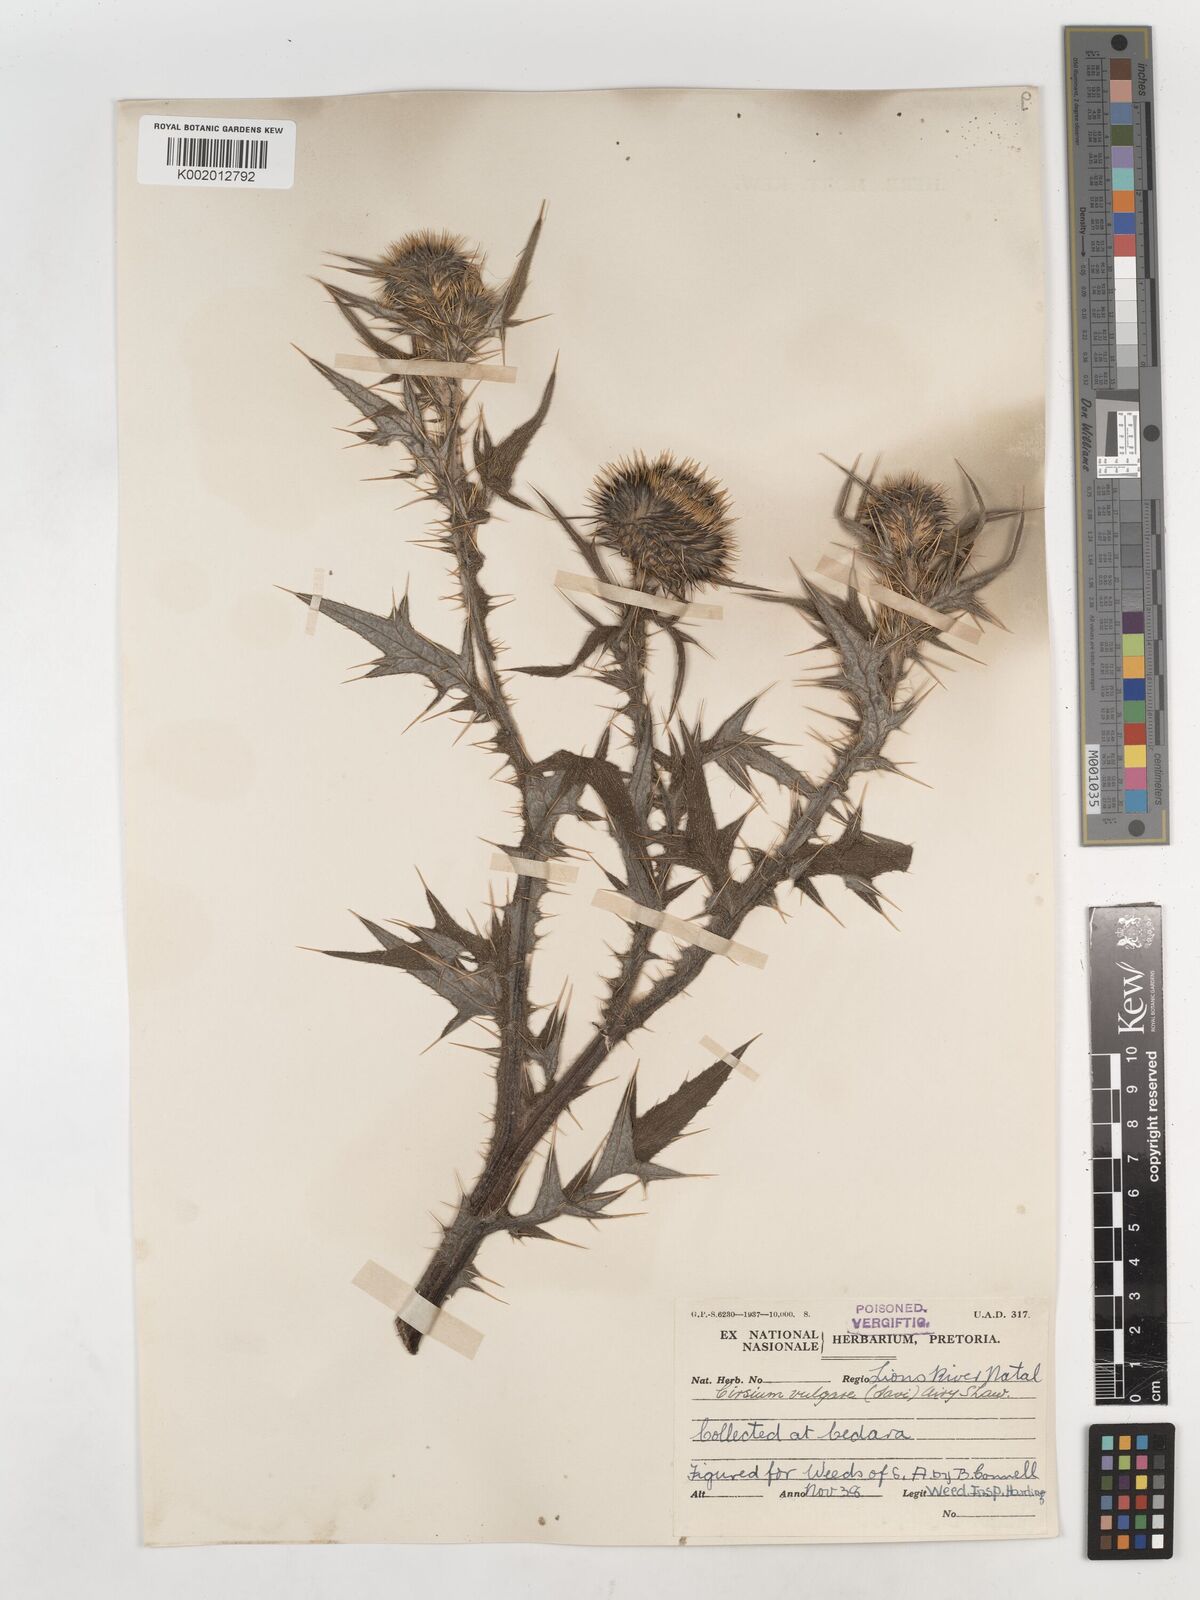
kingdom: Plantae
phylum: Tracheophyta
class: Magnoliopsida
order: Asterales
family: Asteraceae
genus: Cirsium
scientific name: Cirsium vulgare
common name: Bull thistle
